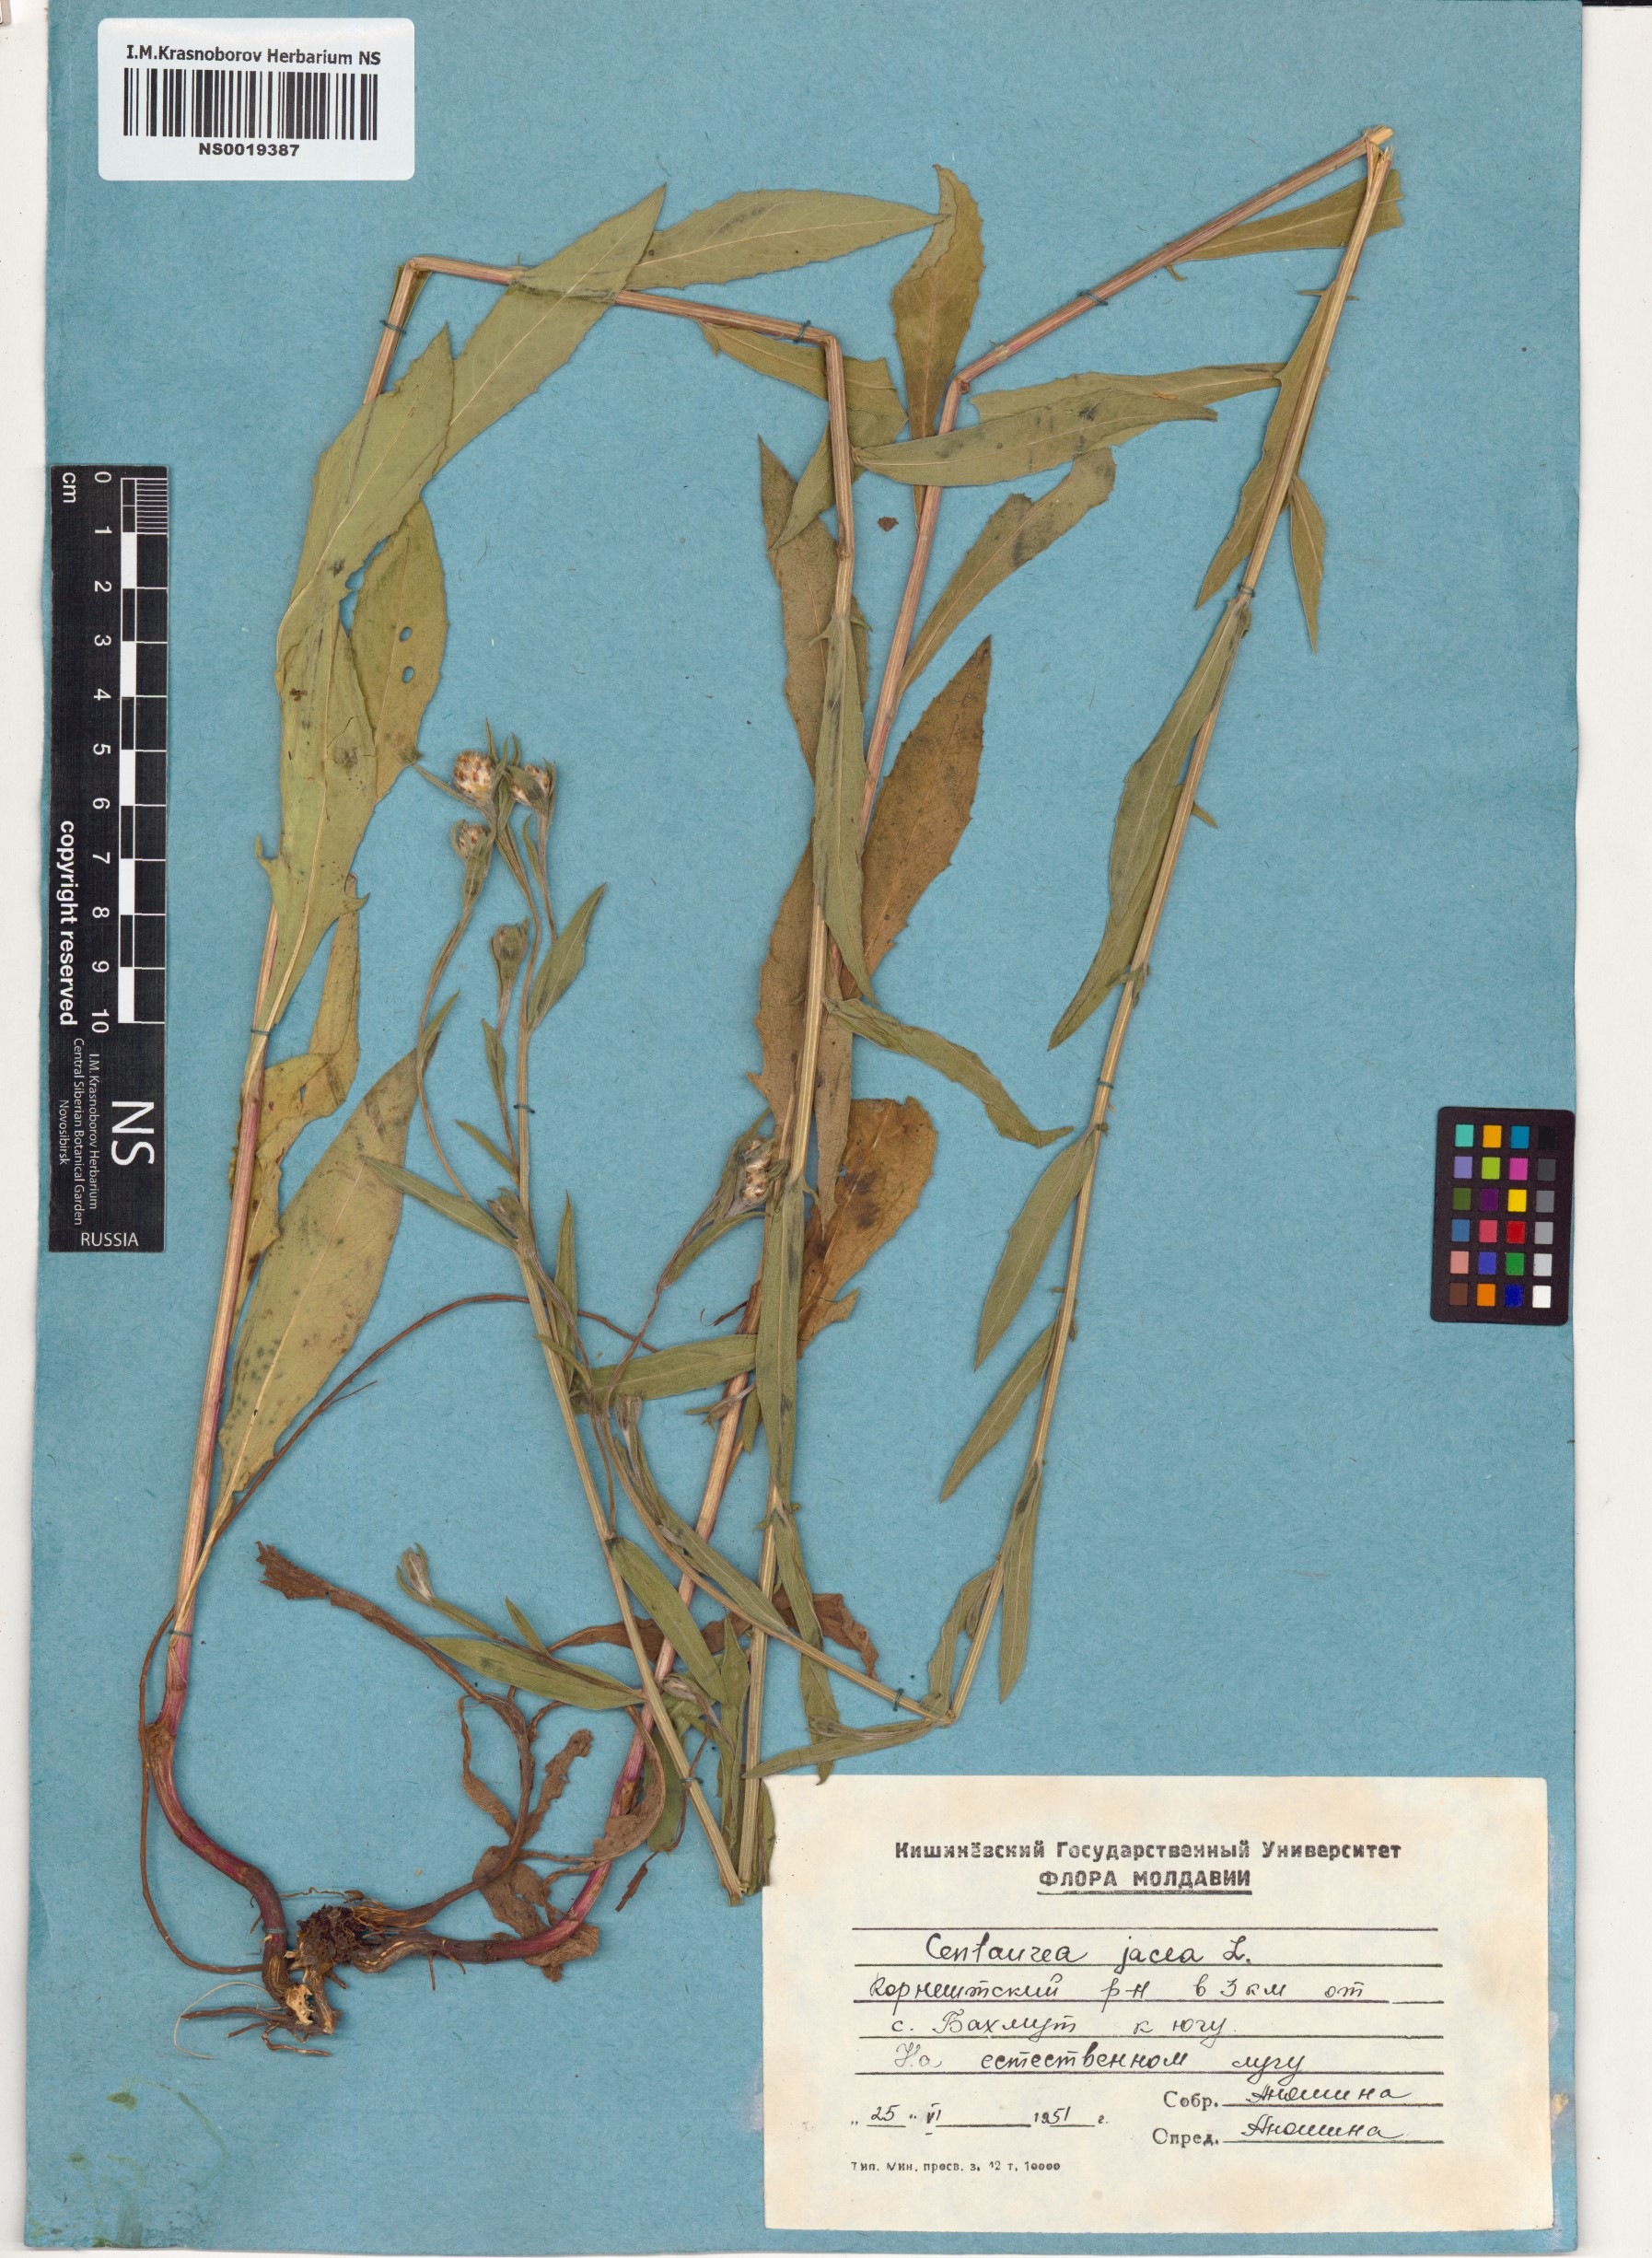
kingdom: Plantae
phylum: Tracheophyta
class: Magnoliopsida
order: Asterales
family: Asteraceae
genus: Centaurea
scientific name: Centaurea jacea
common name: Brown knapweed
